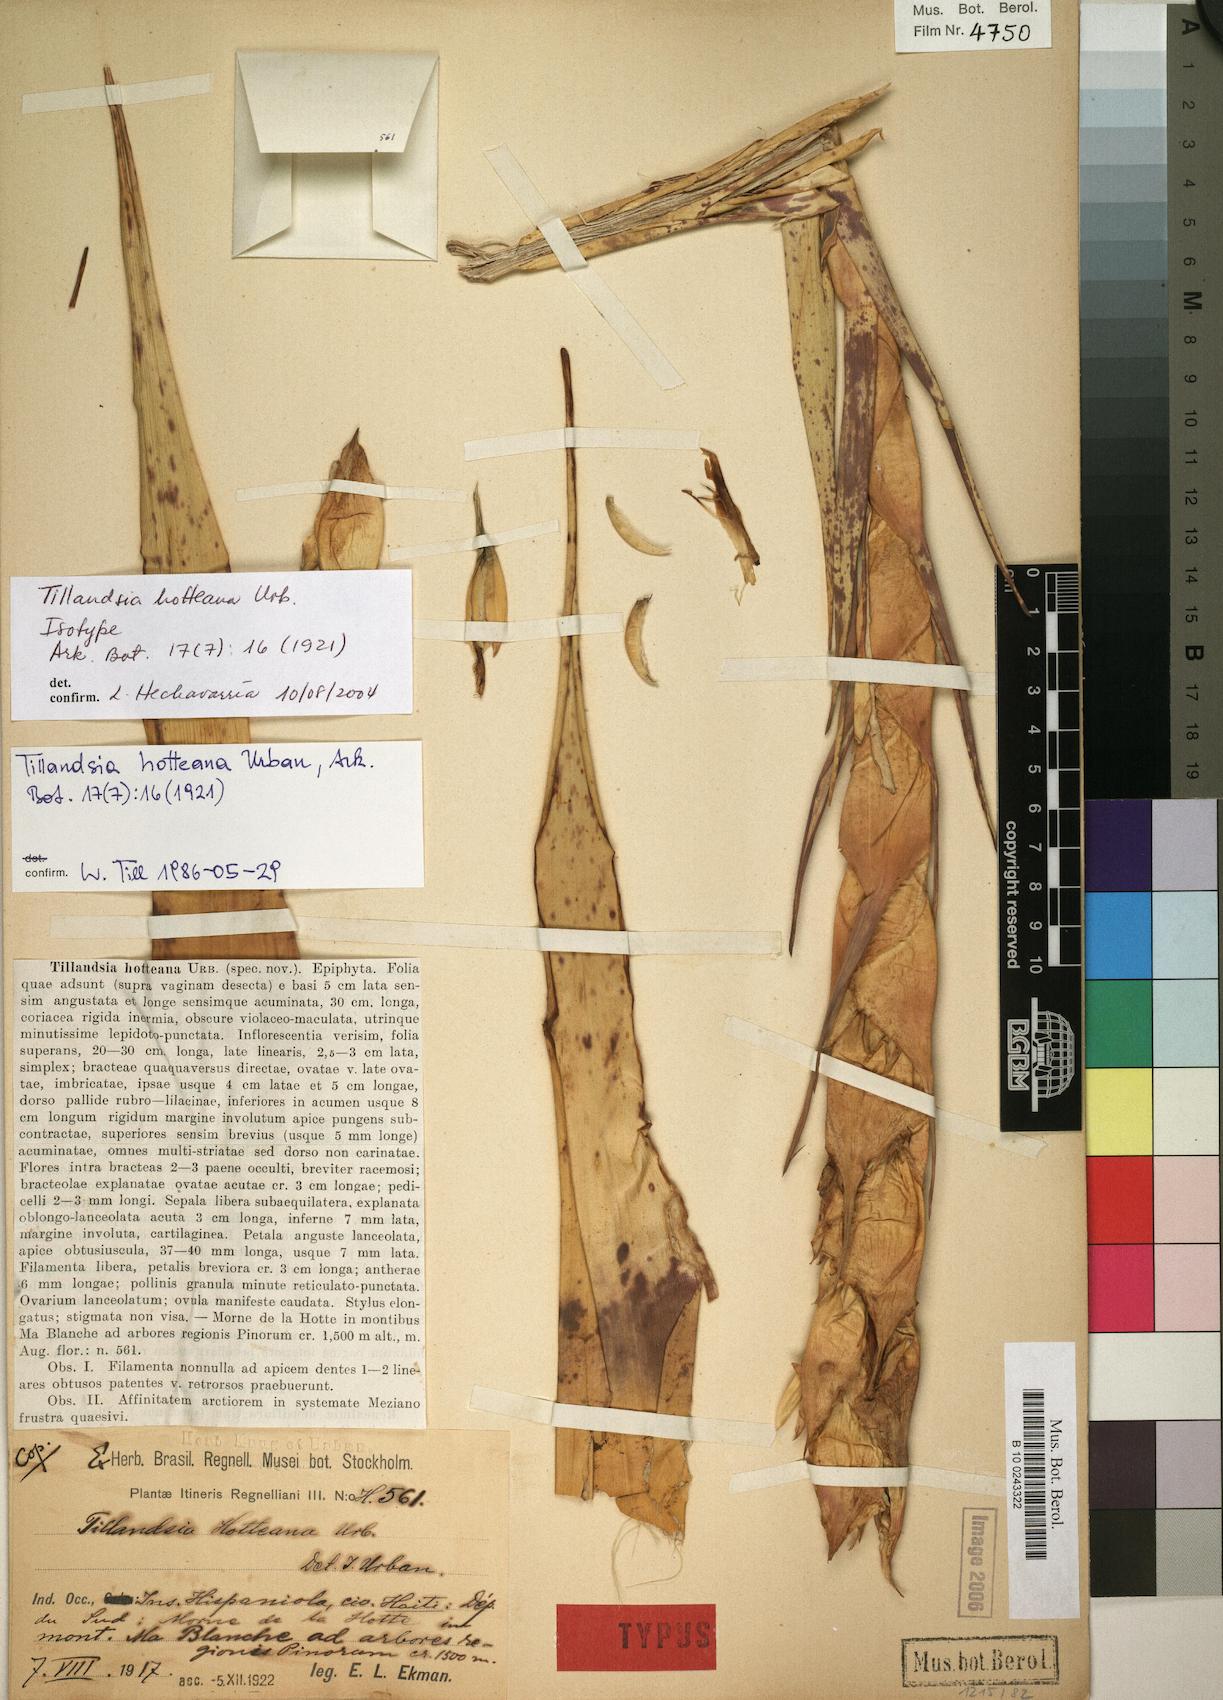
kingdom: Plantae
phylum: Tracheophyta
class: Liliopsida
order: Poales
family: Bromeliaceae
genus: Tillandsia
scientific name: Tillandsia hotteana
